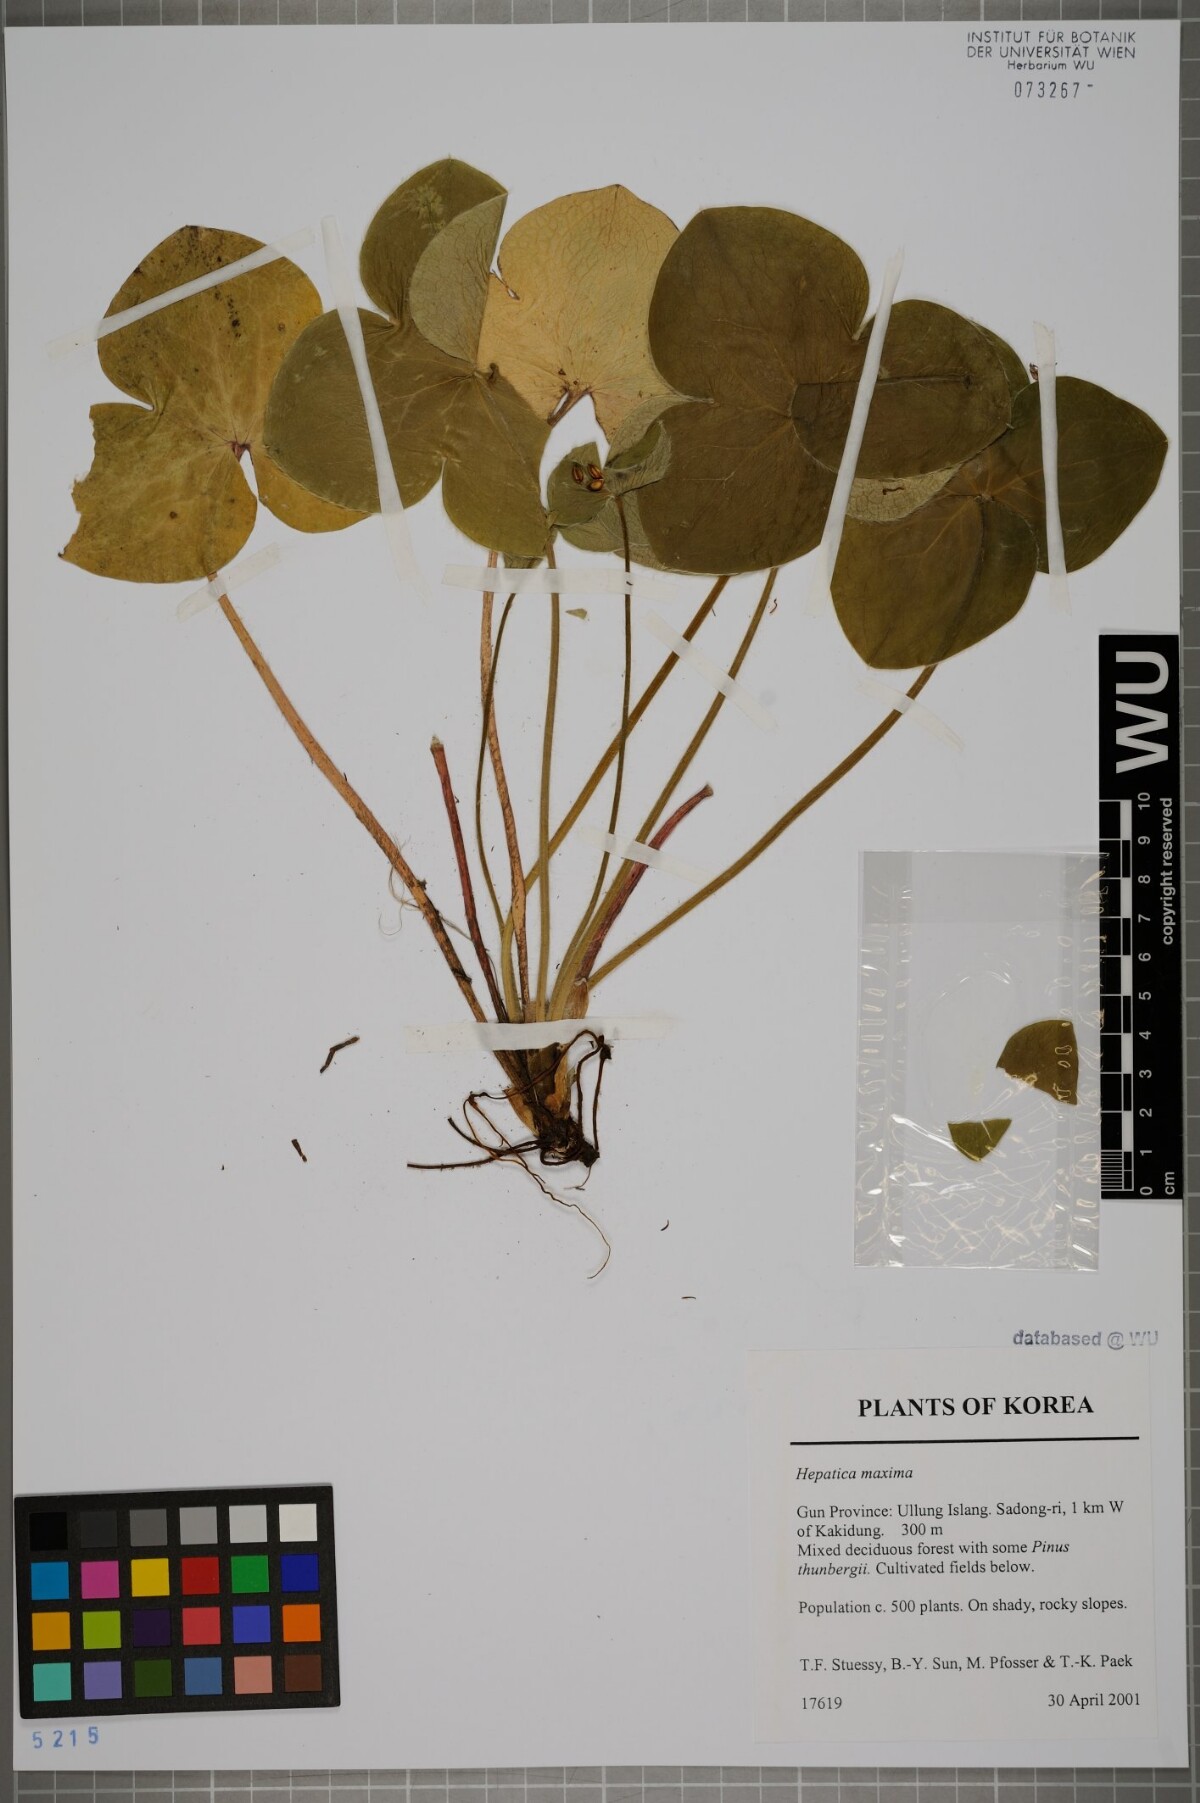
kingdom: Plantae
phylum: Tracheophyta
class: Magnoliopsida
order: Ranunculales
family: Ranunculaceae
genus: Hepatica
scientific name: Hepatica maxima
